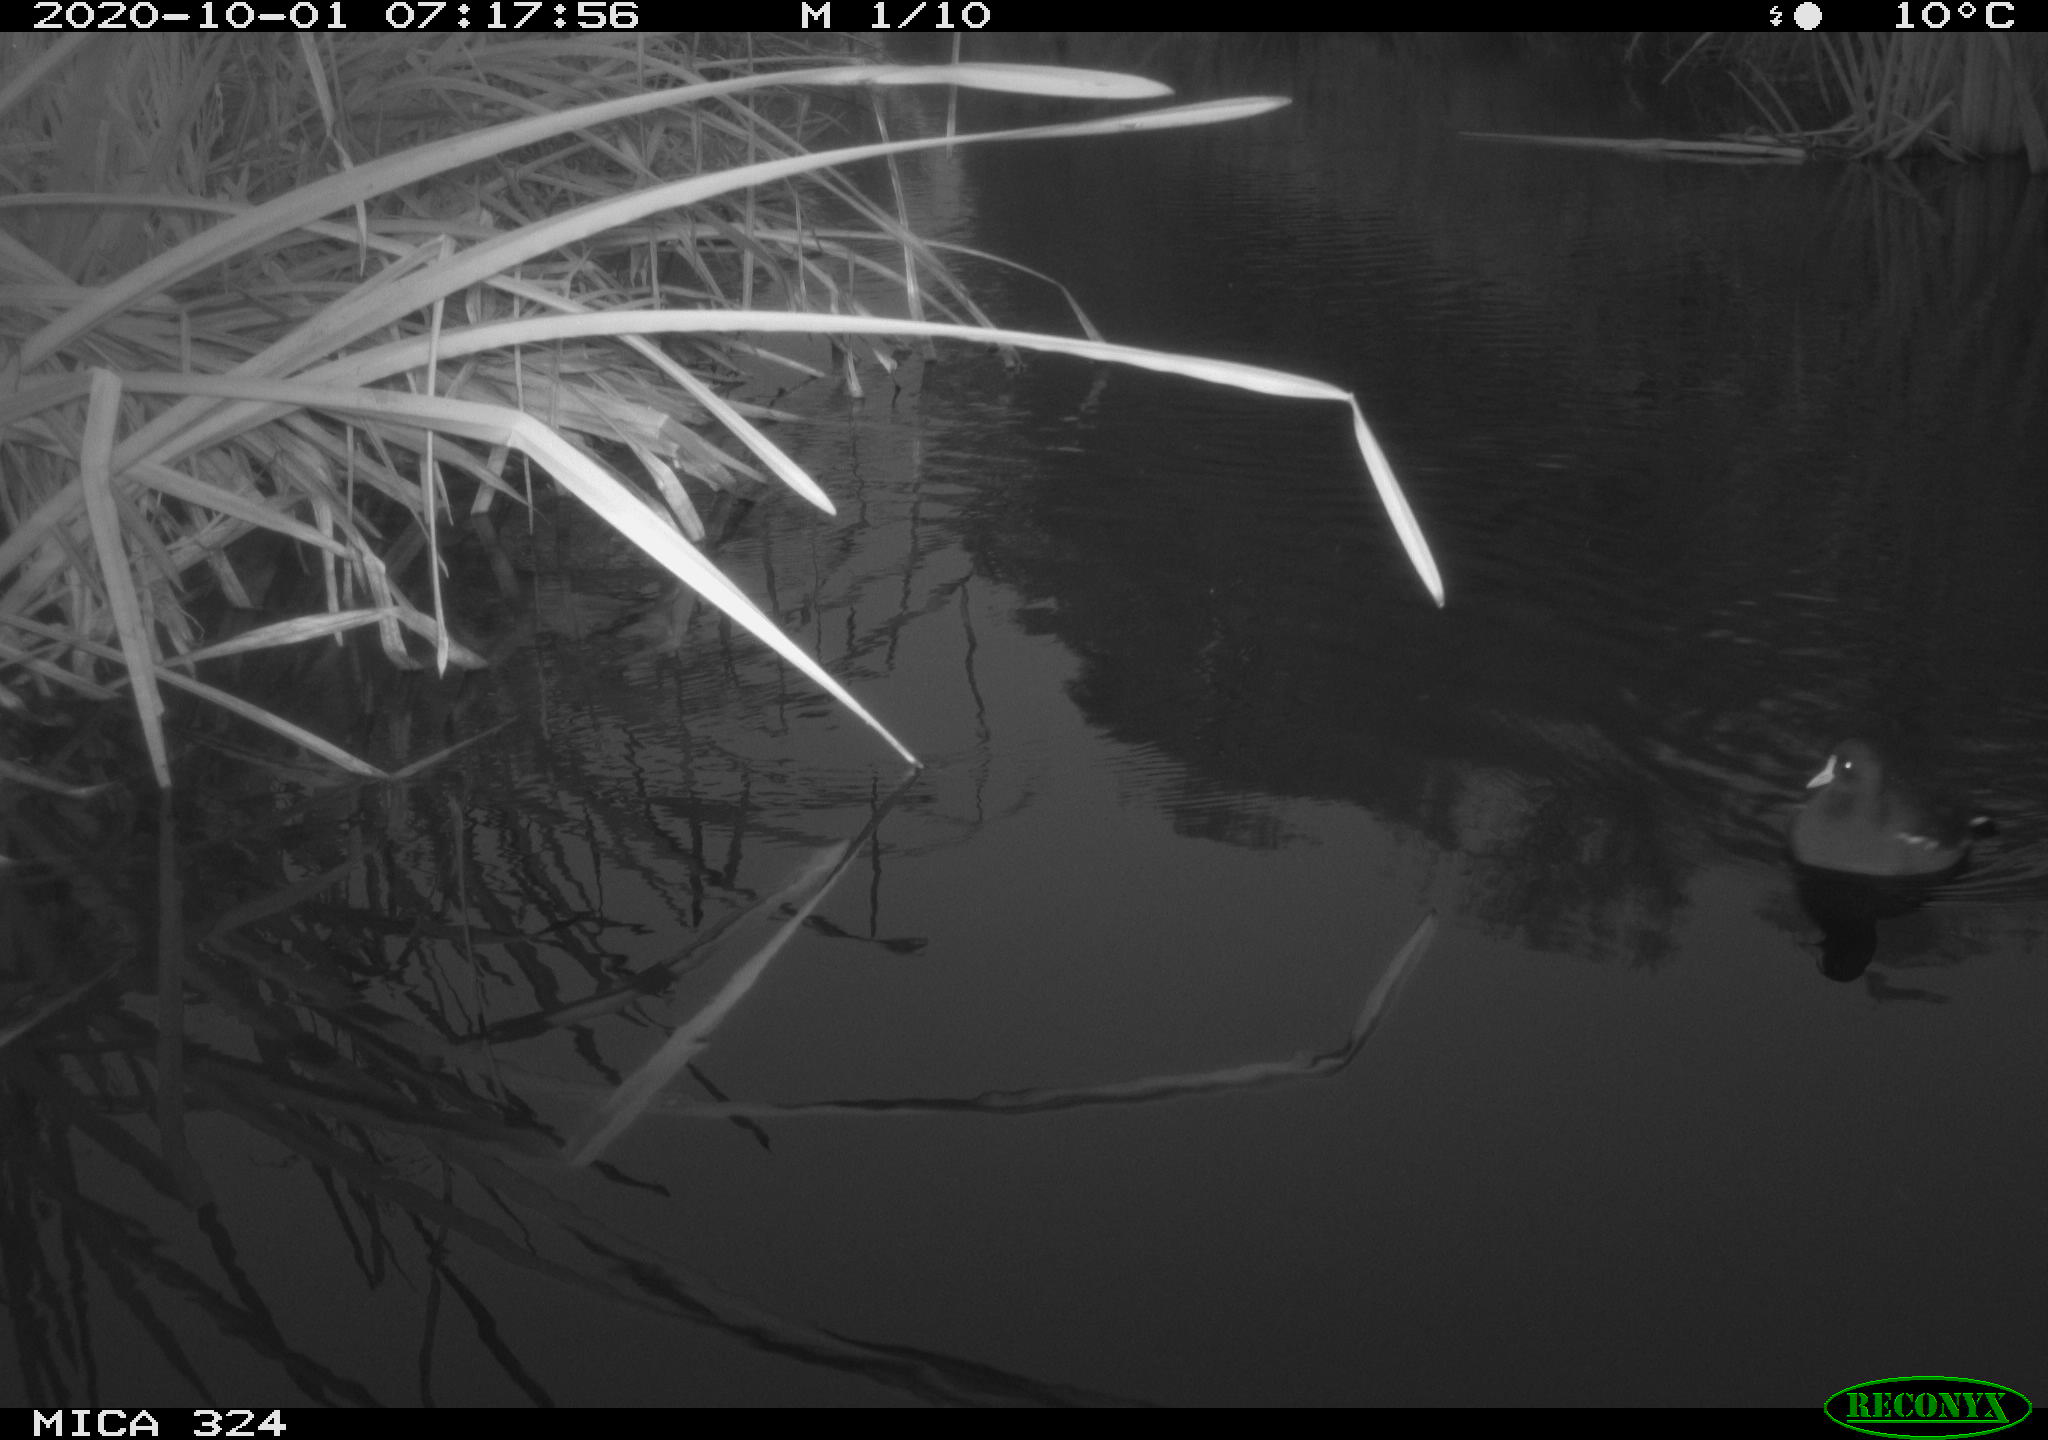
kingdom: Animalia
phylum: Chordata
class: Aves
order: Gruiformes
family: Rallidae
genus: Gallinula
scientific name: Gallinula chloropus
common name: Common moorhen
